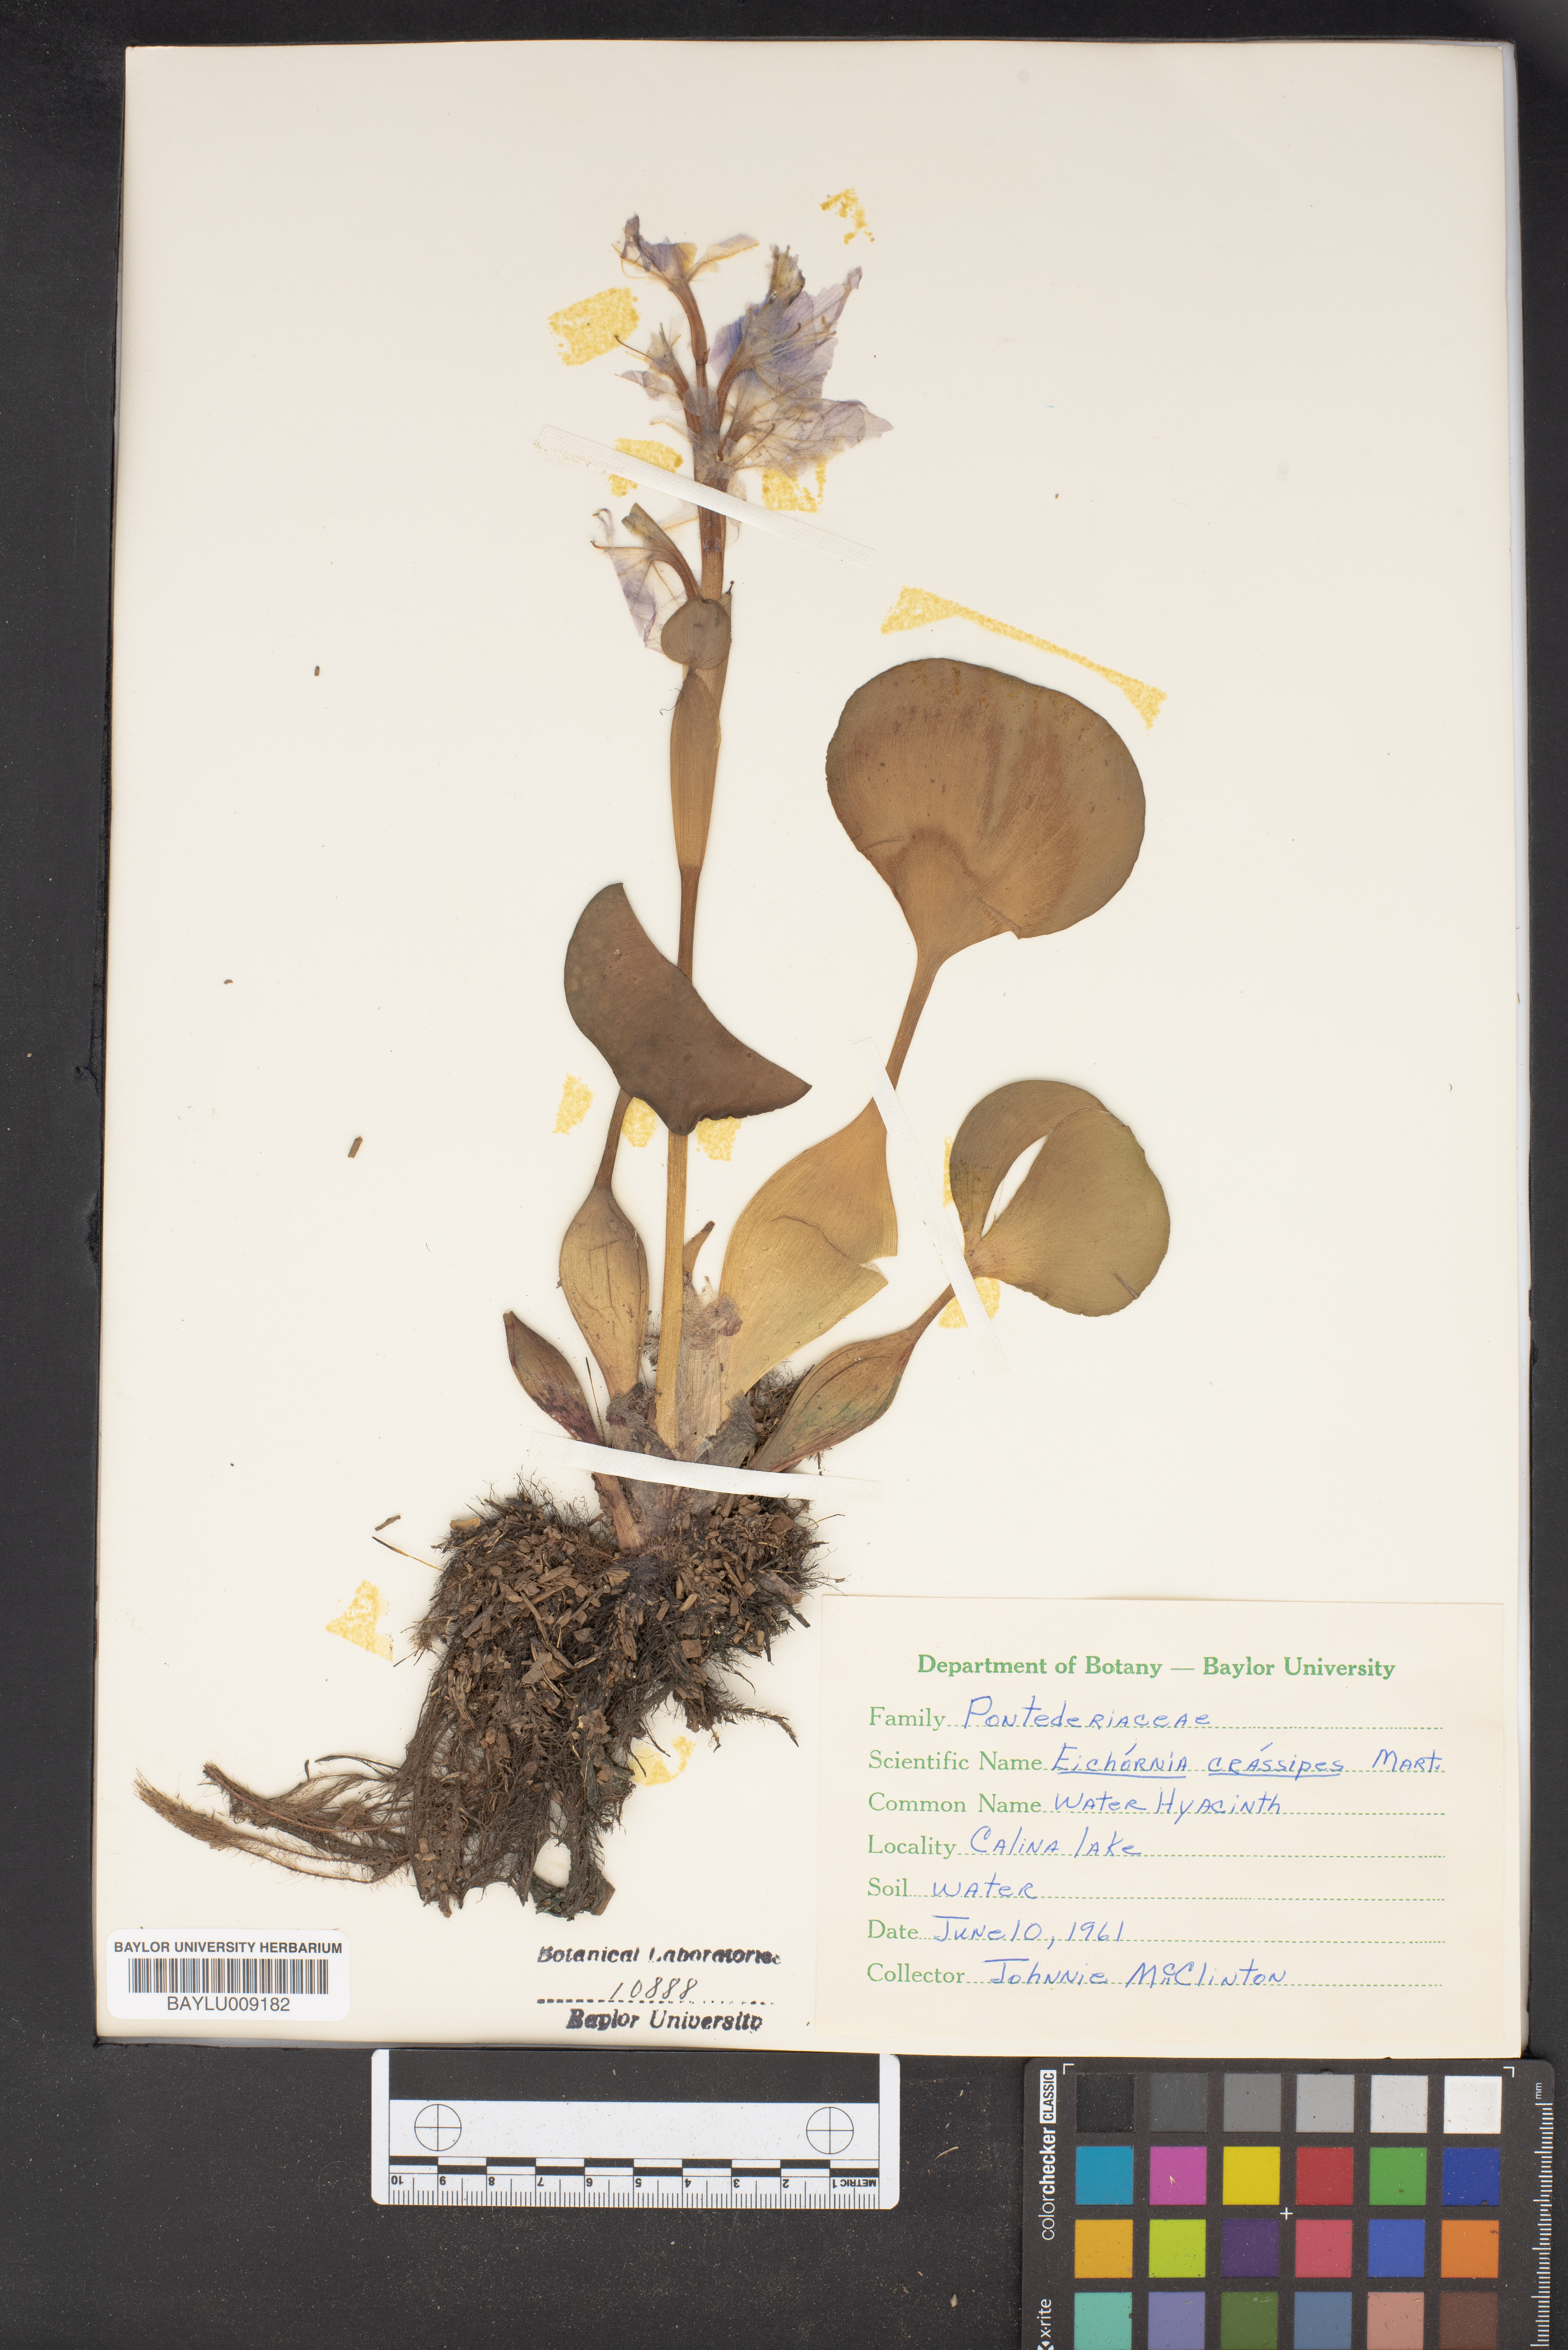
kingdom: Plantae
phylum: Tracheophyta
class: Liliopsida
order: Commelinales
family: Pontederiaceae
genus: Pontederia
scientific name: Pontederia crassipes
